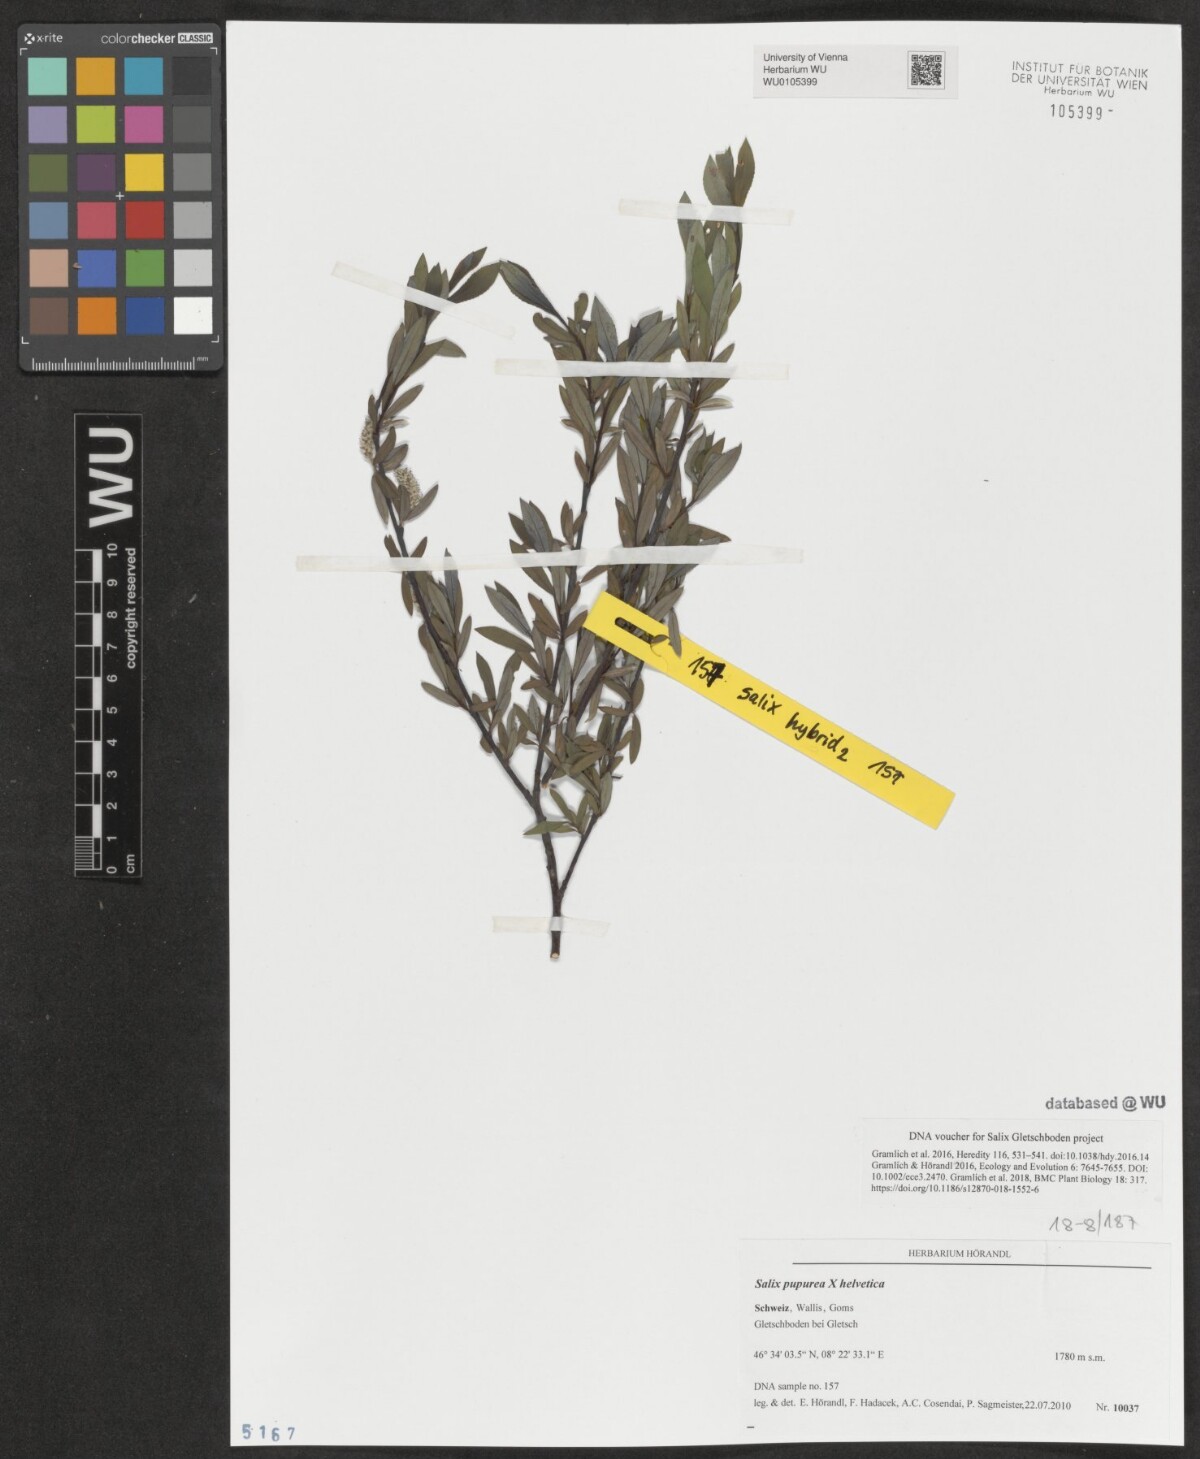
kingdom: Plantae
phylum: Tracheophyta
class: Magnoliopsida
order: Malpighiales
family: Salicaceae
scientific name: Salicaceae
